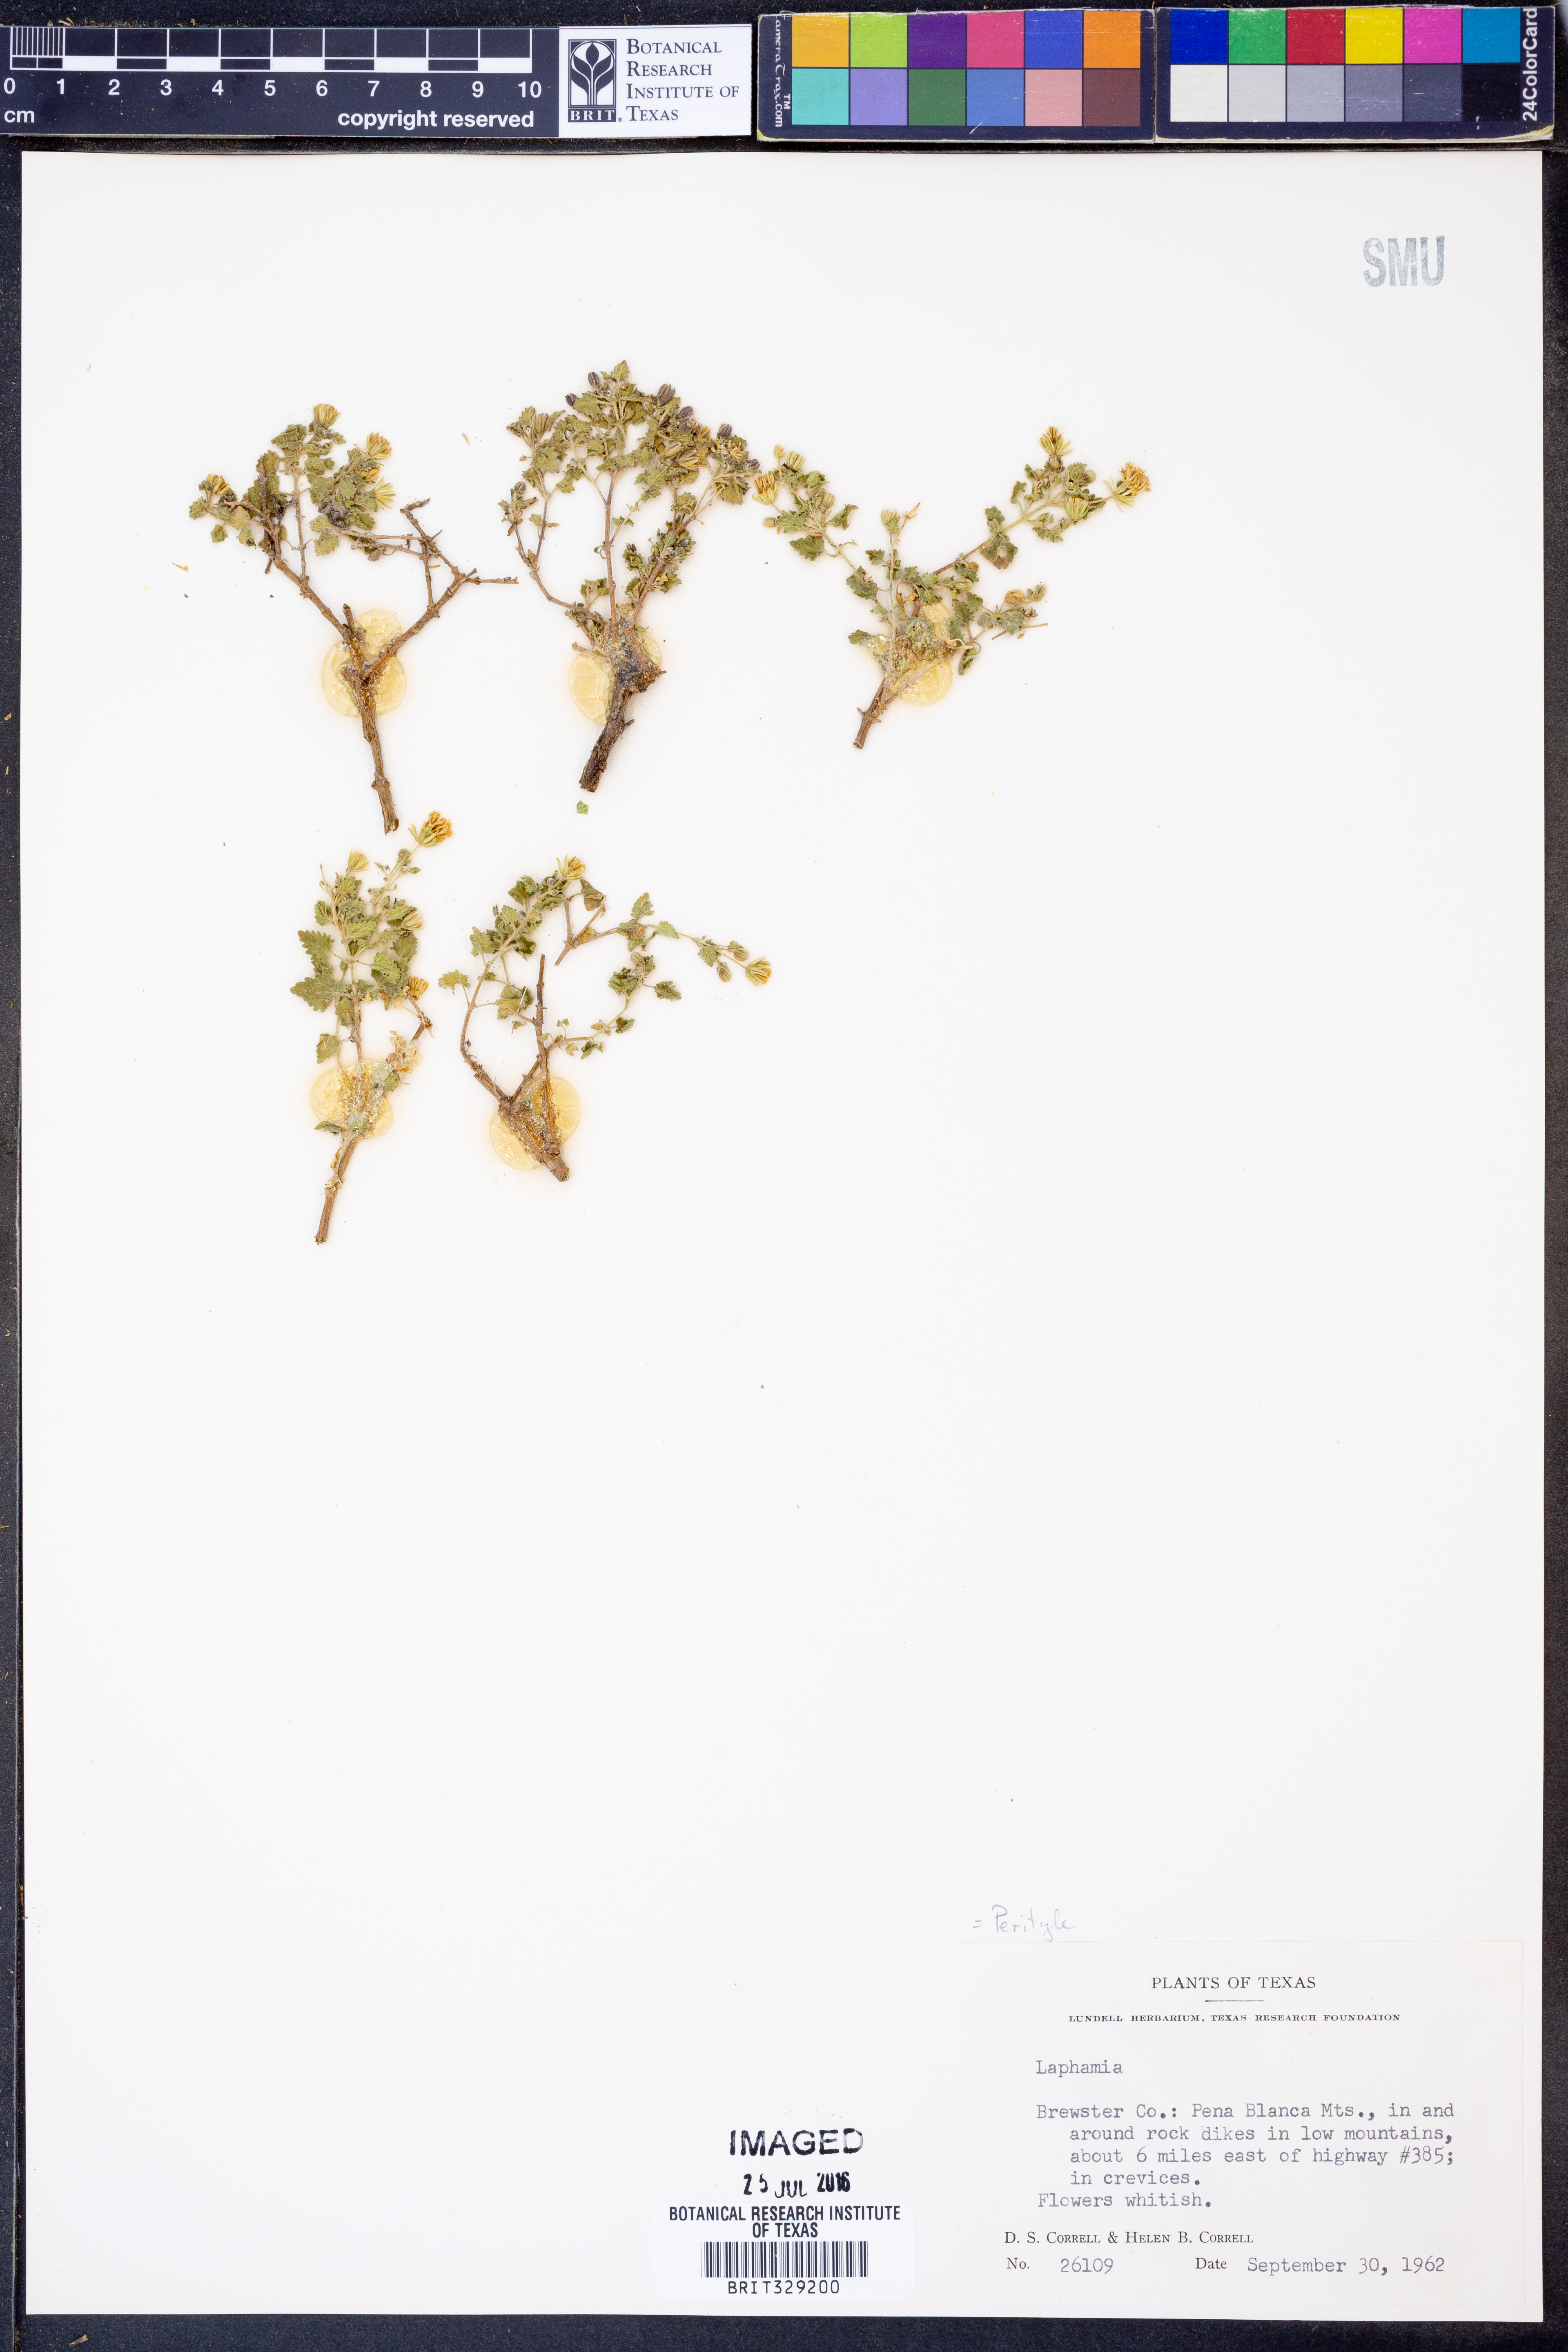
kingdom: Plantae
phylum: Tracheophyta
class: Magnoliopsida
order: Asterales
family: Asteraceae
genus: Perityle
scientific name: Perityle
